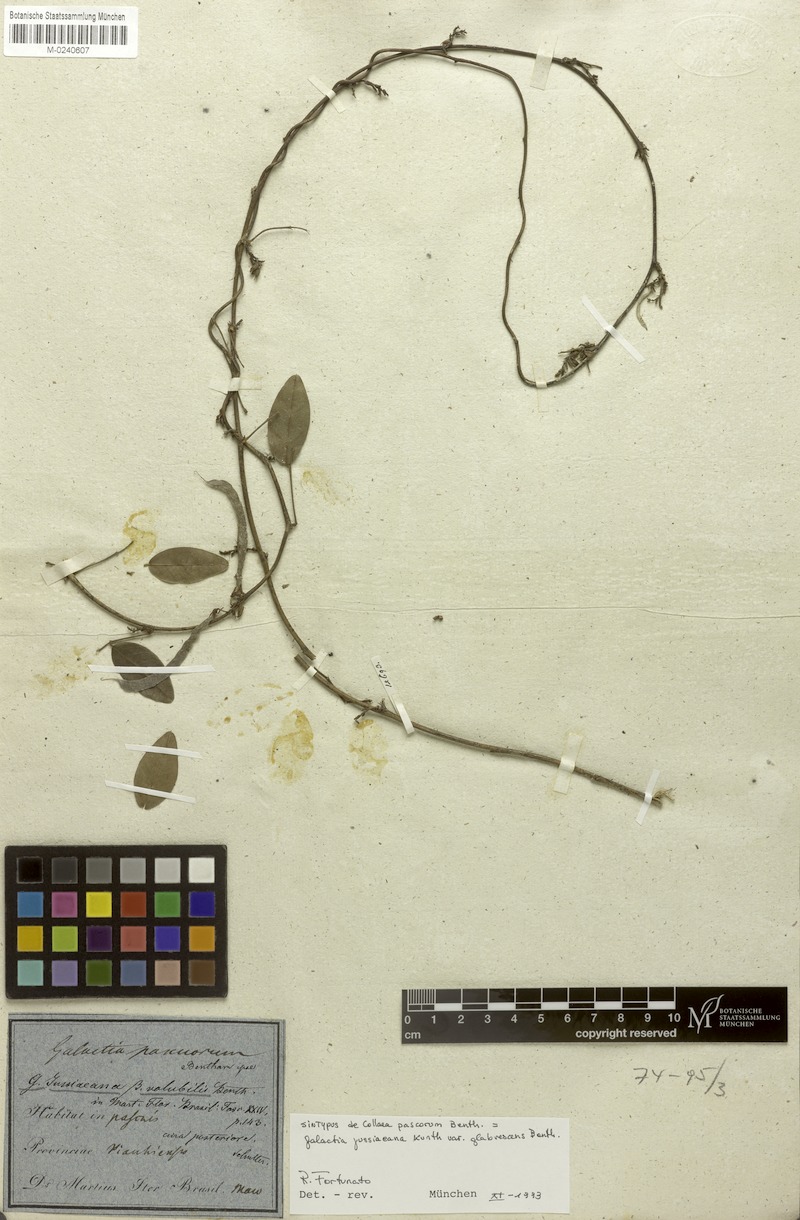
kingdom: Plantae
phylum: Tracheophyta
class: Magnoliopsida
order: Fabales
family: Fabaceae
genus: Galactia
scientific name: Galactia jussiaeana
